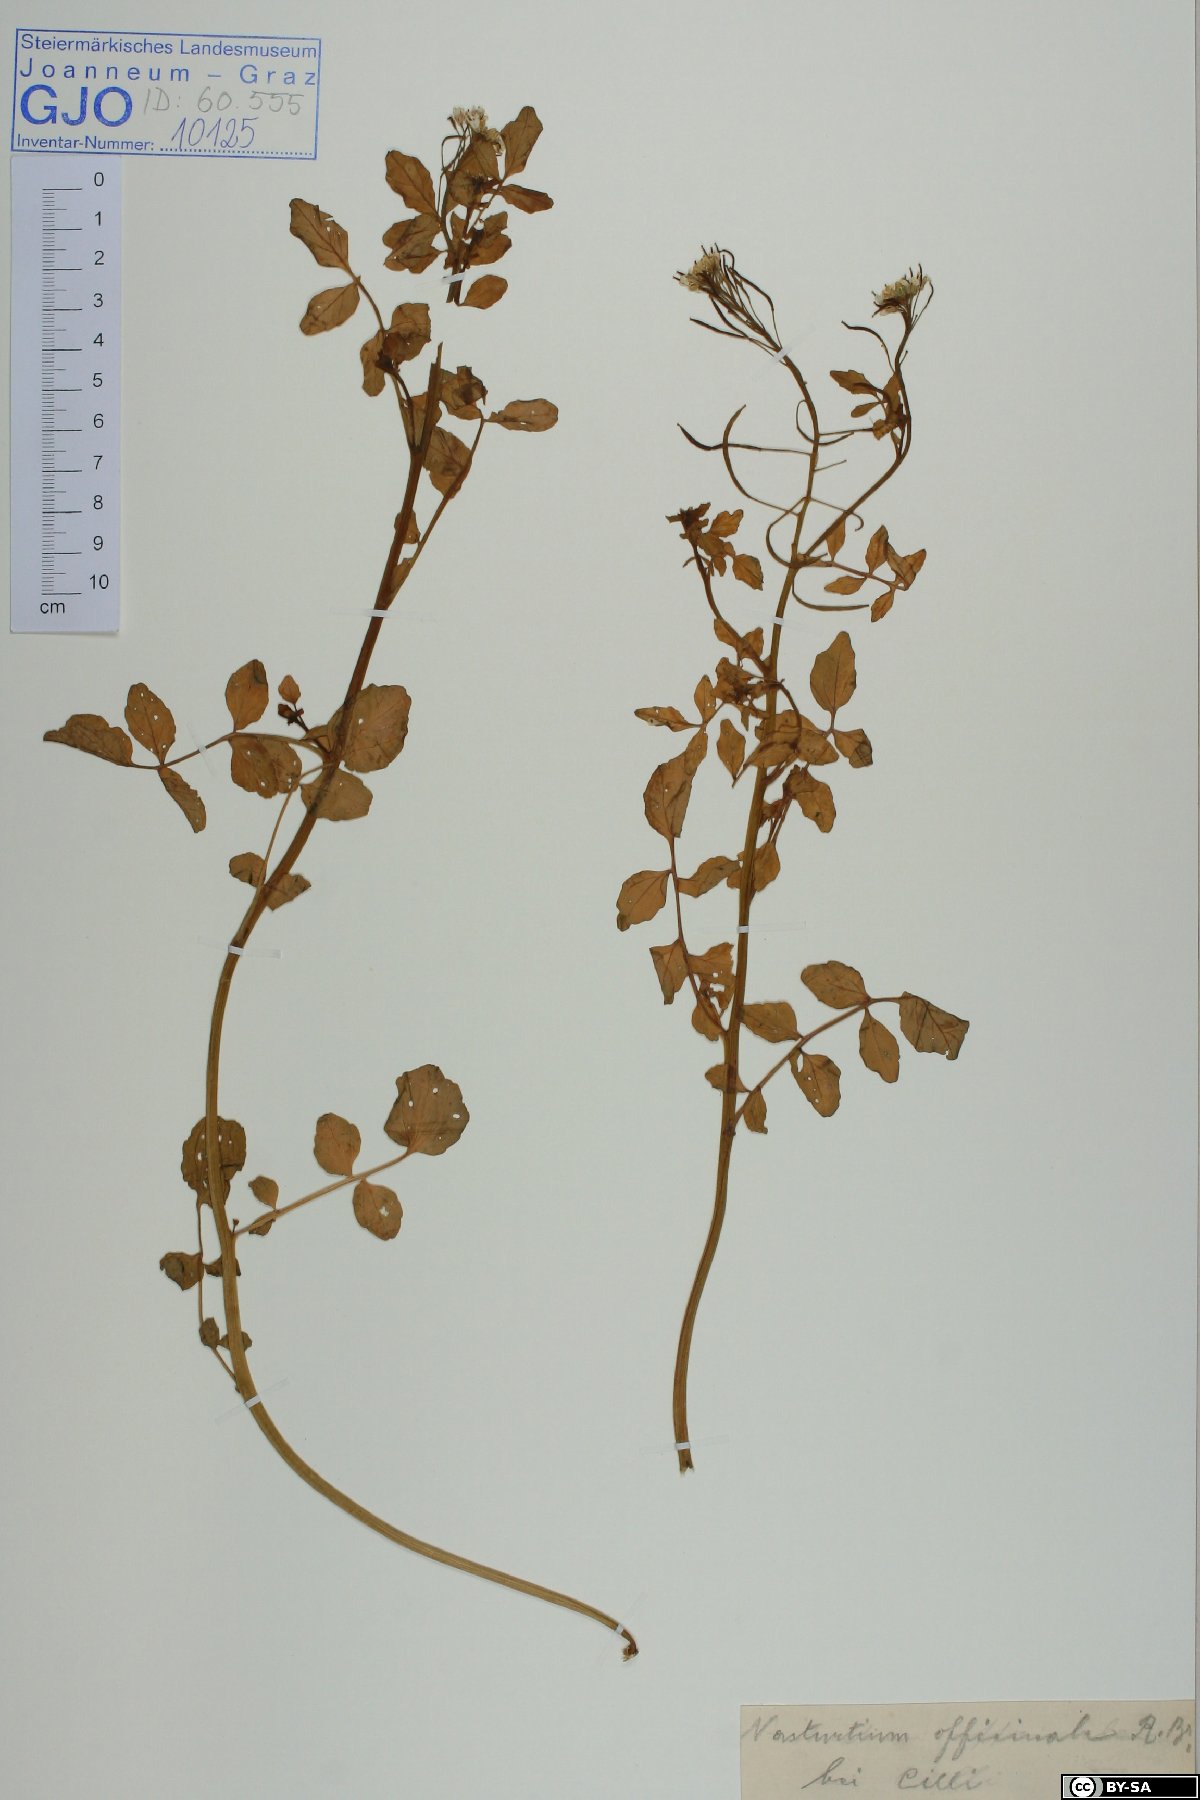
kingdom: Plantae
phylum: Tracheophyta
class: Magnoliopsida
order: Brassicales
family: Brassicaceae
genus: Nasturtium
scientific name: Nasturtium officinale
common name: Watercress
